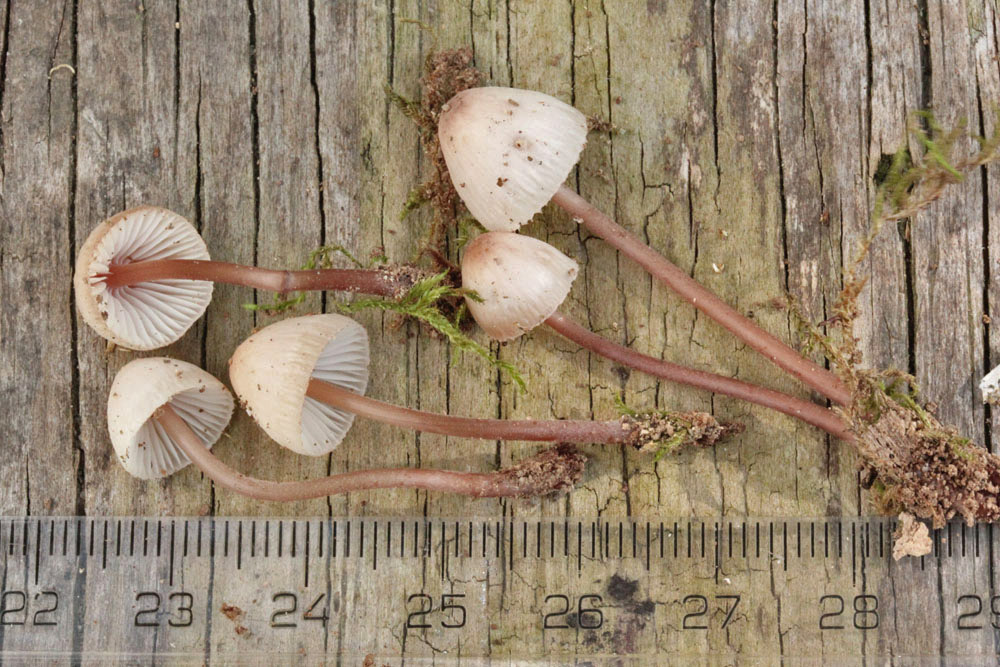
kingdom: Fungi
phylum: Basidiomycota
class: Agaricomycetes
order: Agaricales
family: Mycenaceae
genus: Mycena
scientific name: Mycena haematopus
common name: blødende huesvamp
